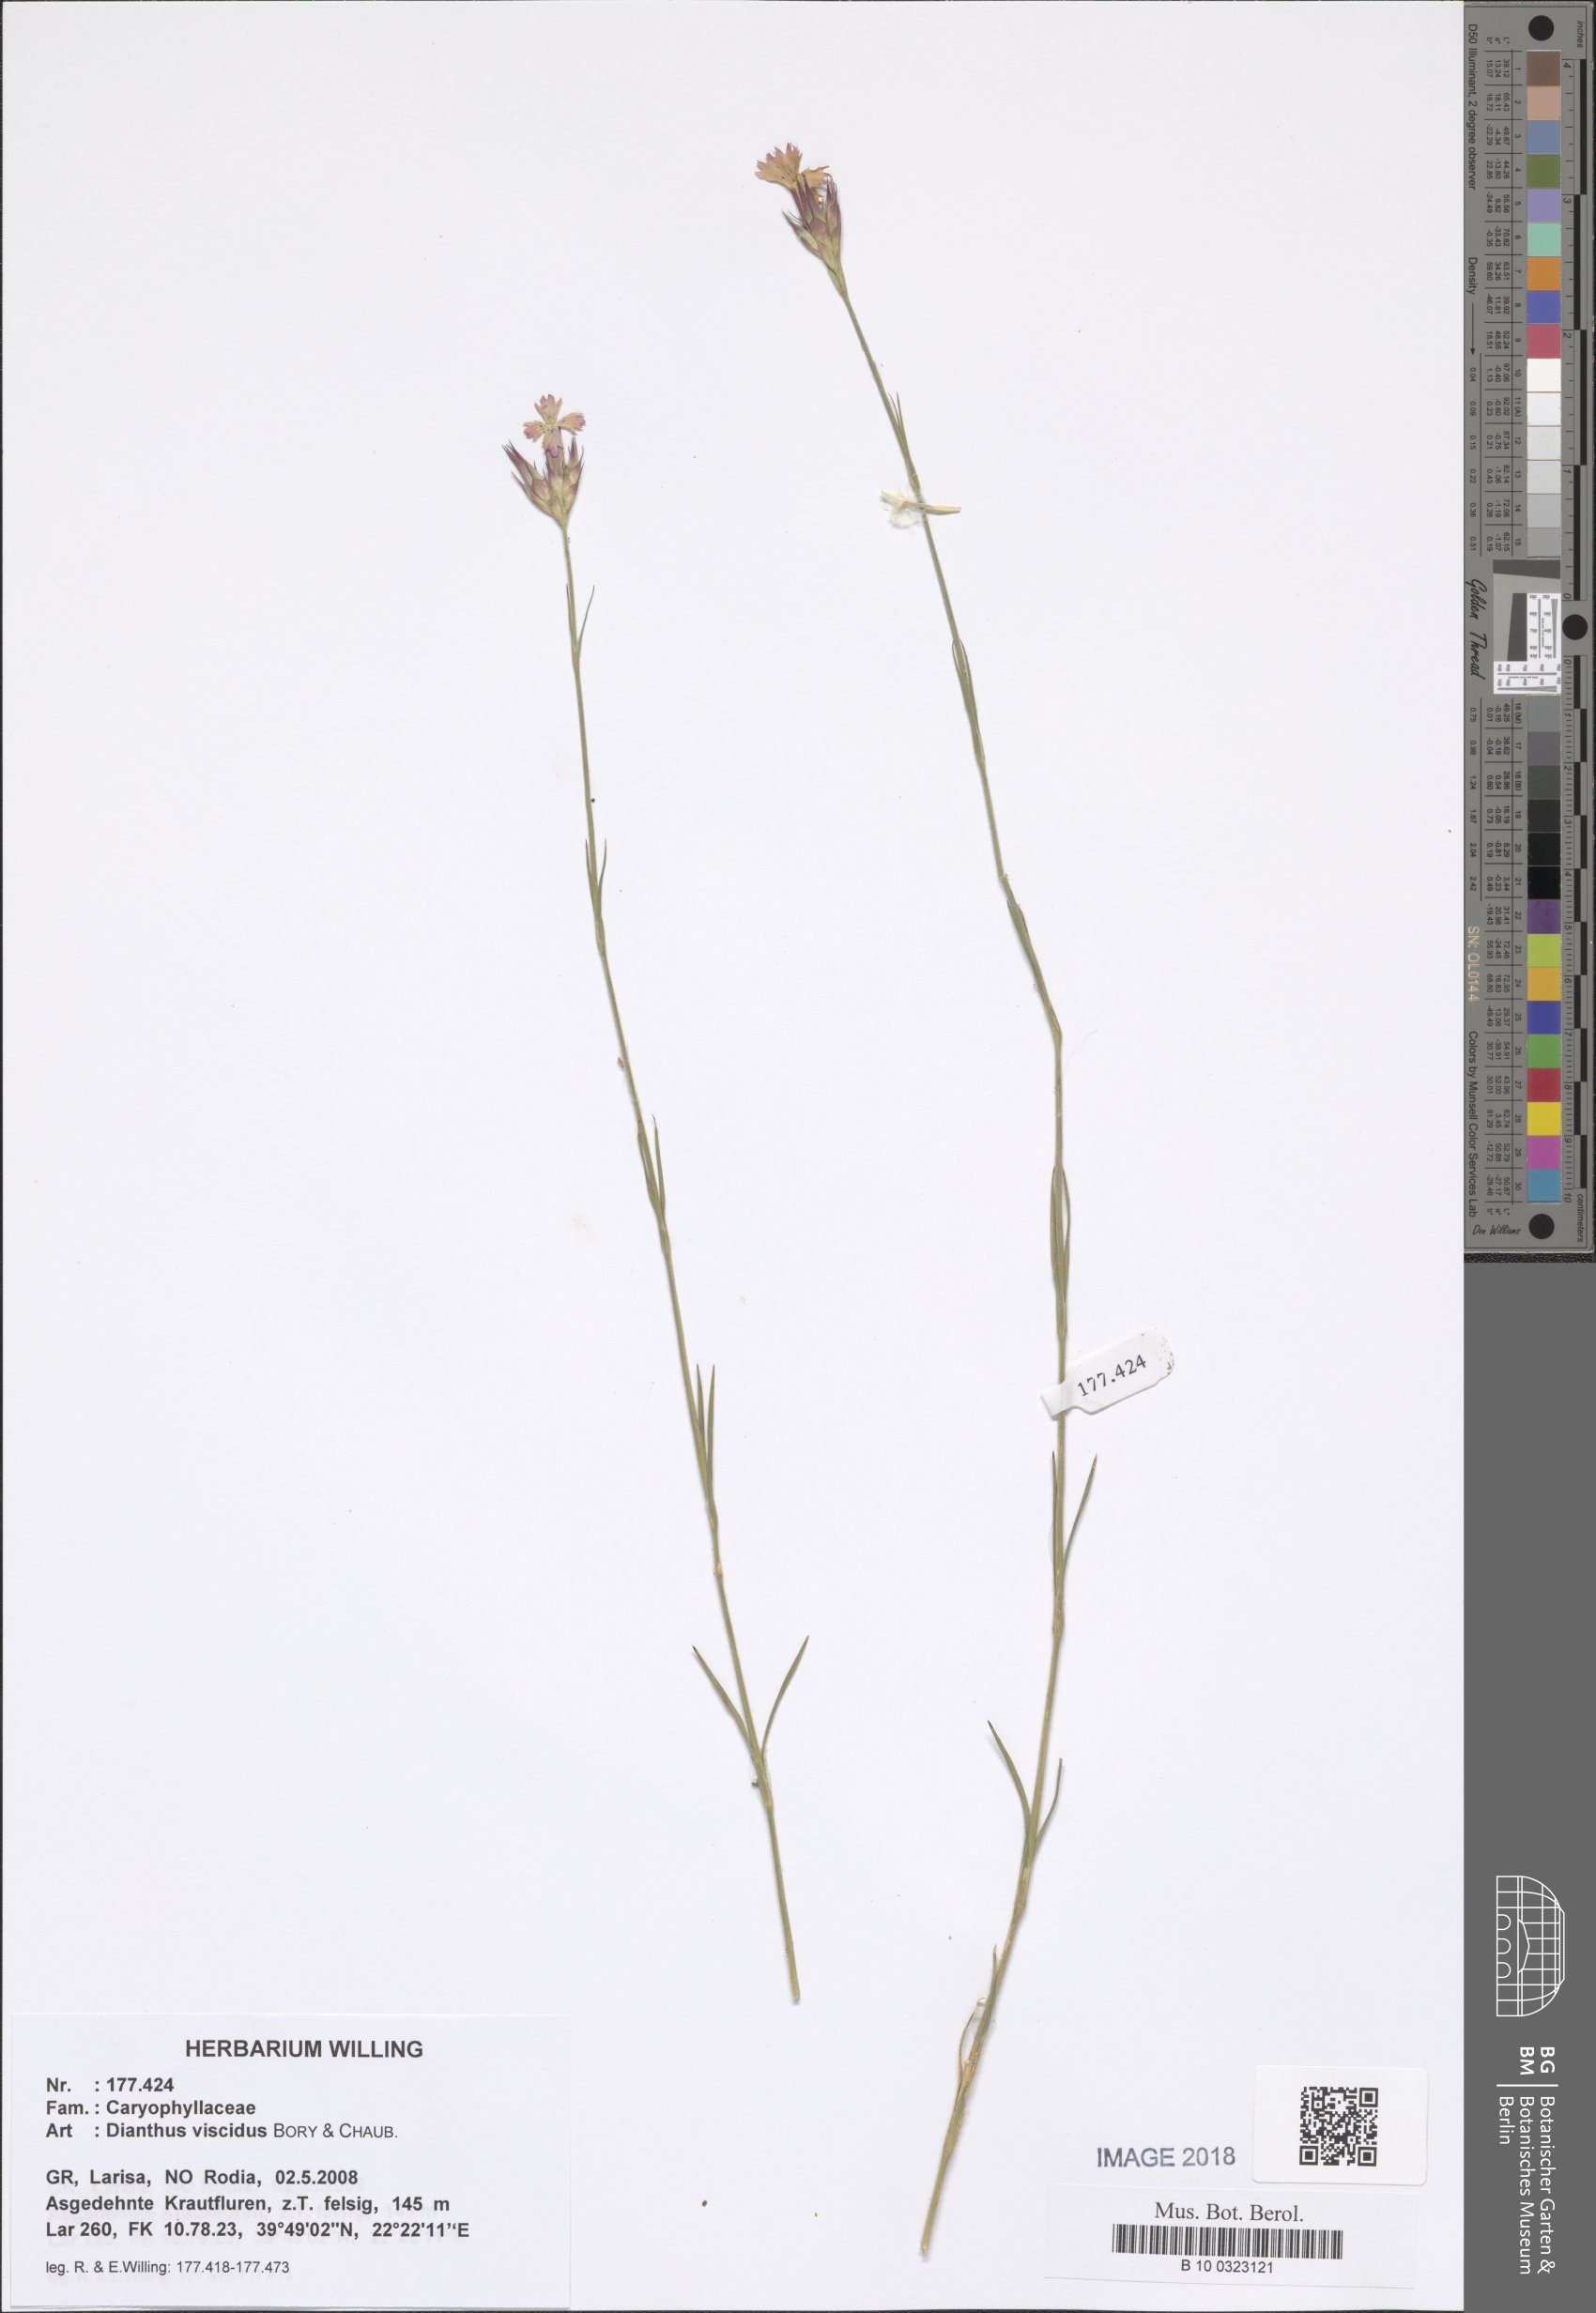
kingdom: Plantae
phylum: Tracheophyta
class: Magnoliopsida
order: Caryophyllales
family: Caryophyllaceae
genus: Dianthus
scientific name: Dianthus viscidus
